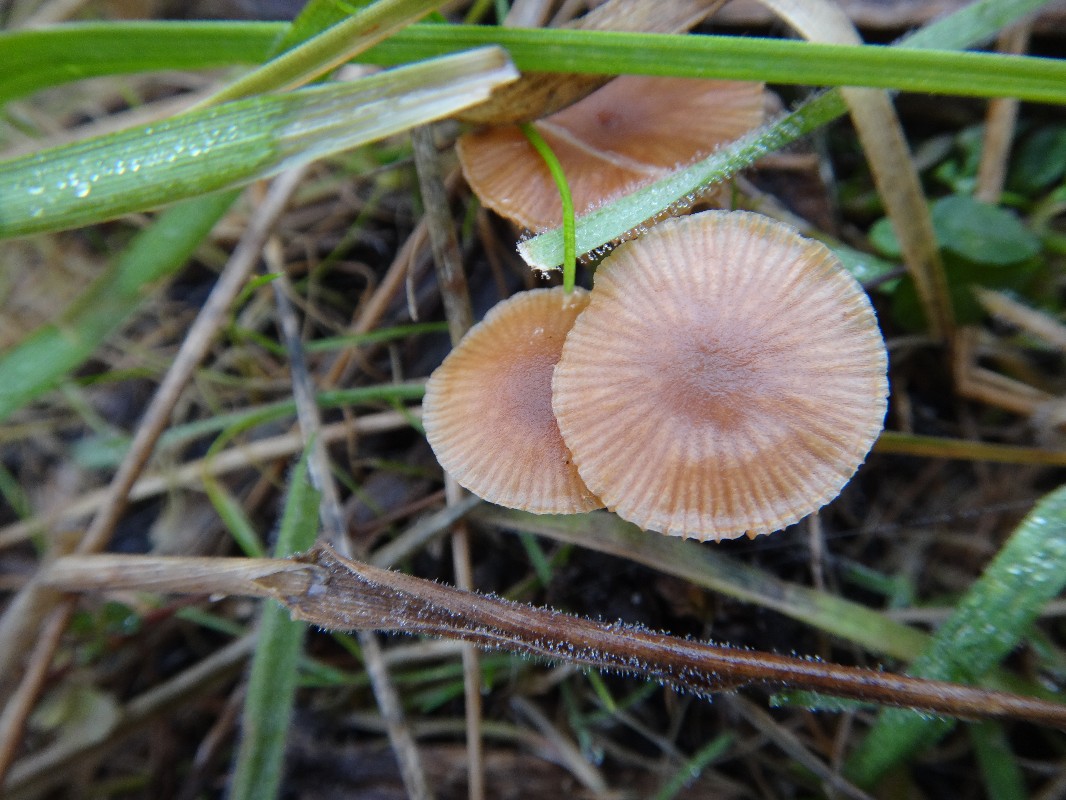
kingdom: Fungi
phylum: Basidiomycota
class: Agaricomycetes
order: Agaricales
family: Tubariaceae
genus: Tubaria
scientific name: Tubaria furfuracea
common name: kliddet fnughat
